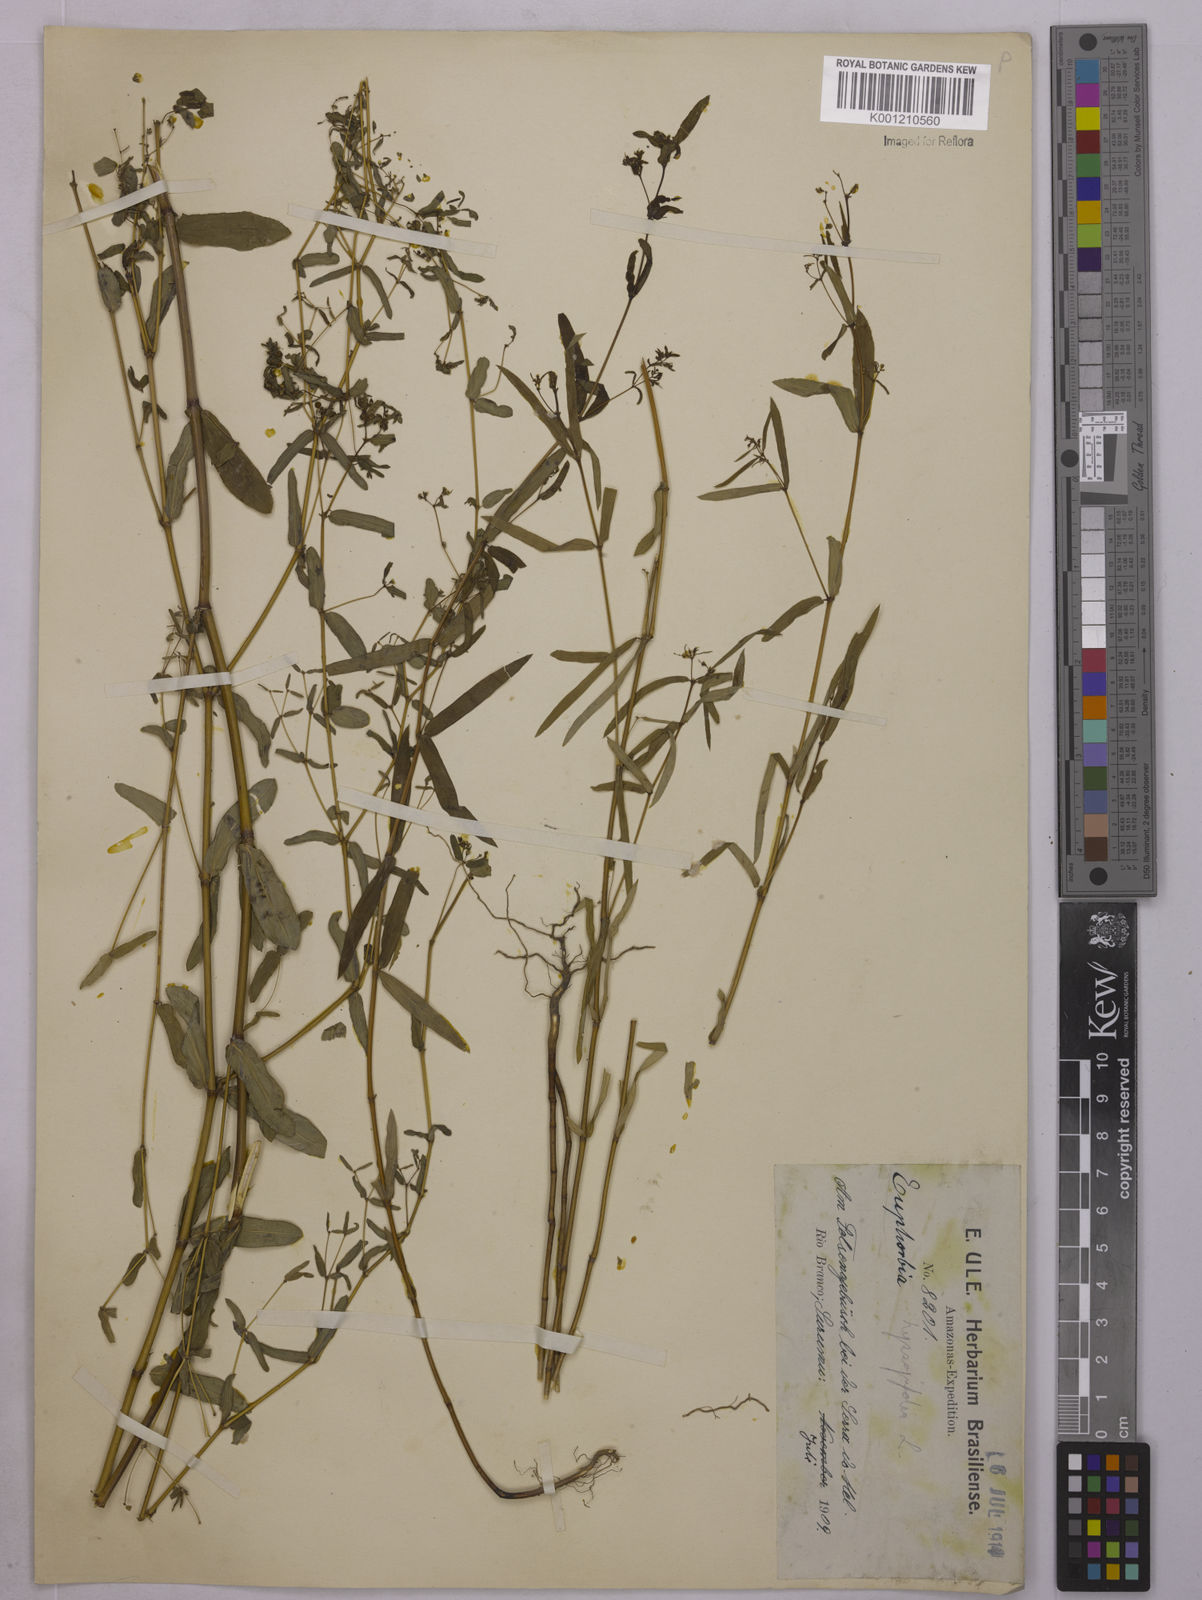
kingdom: Plantae
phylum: Tracheophyta
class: Magnoliopsida
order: Malpighiales
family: Euphorbiaceae
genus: Euphorbia
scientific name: Euphorbia hyssopifolia
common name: Hyssopleaf sandmat
